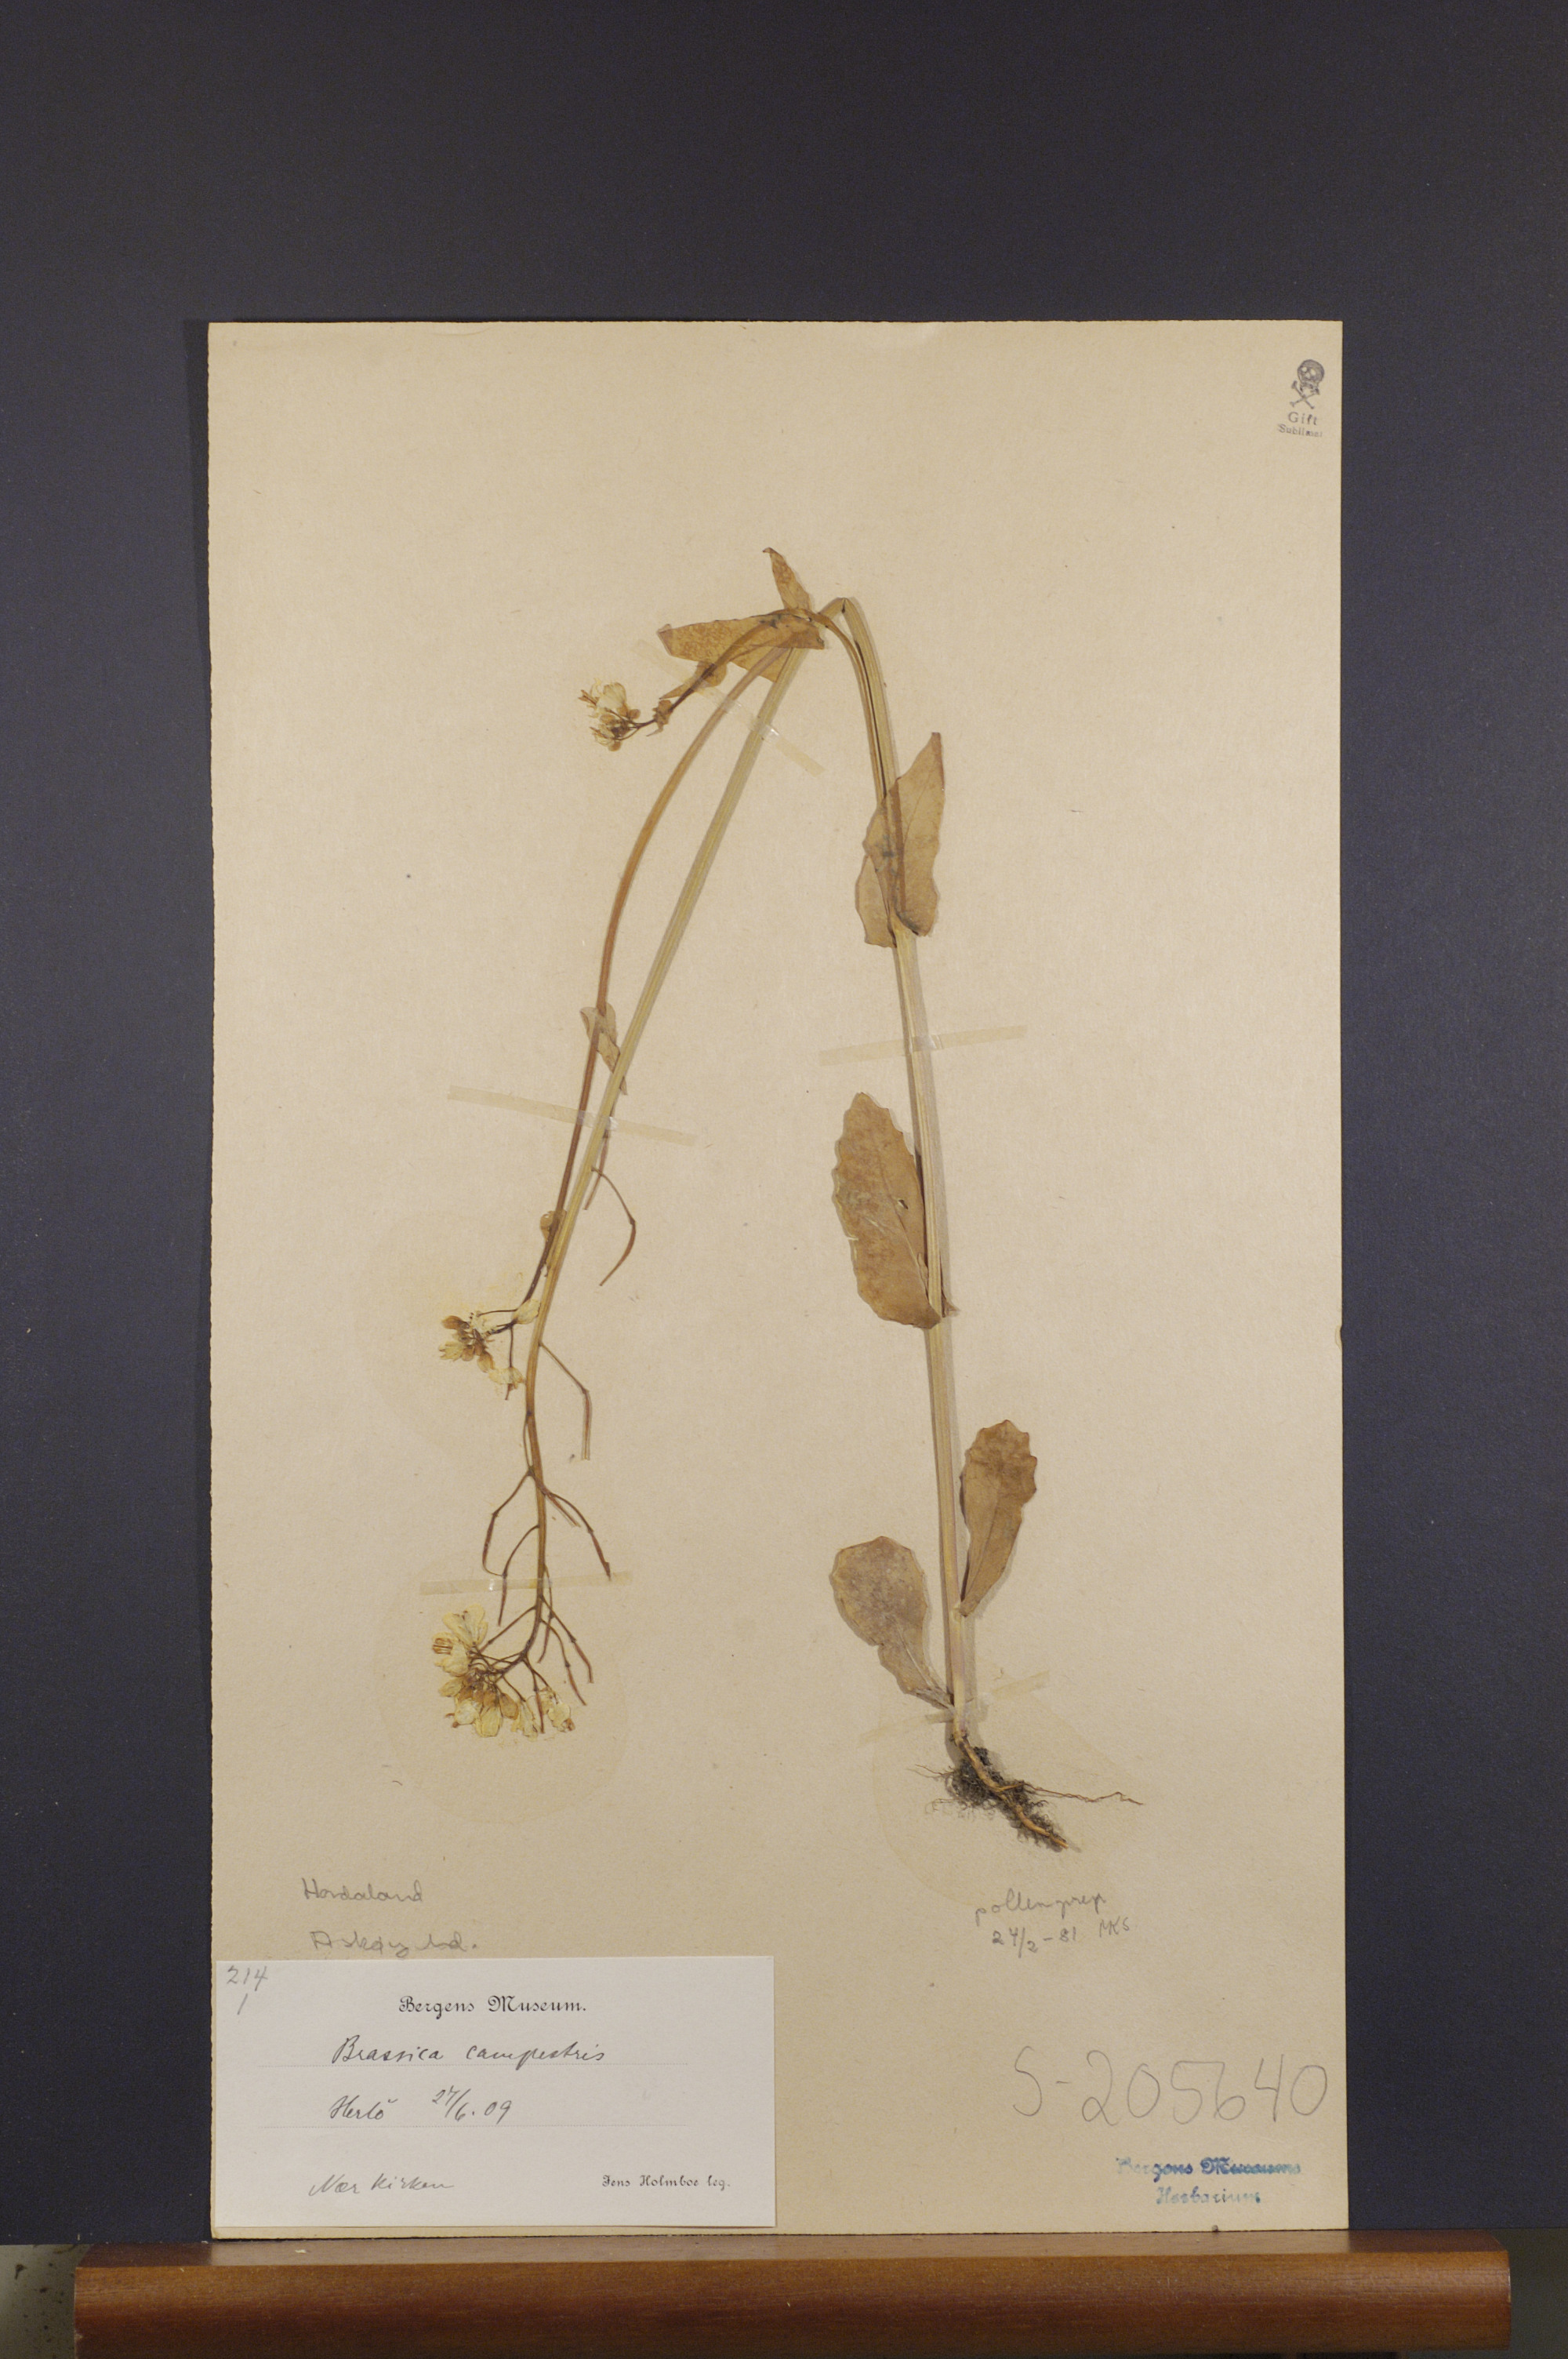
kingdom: Plantae
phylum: Tracheophyta
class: Magnoliopsida
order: Brassicales
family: Brassicaceae
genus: Brassica
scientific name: Brassica rapa
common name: Field mustard
